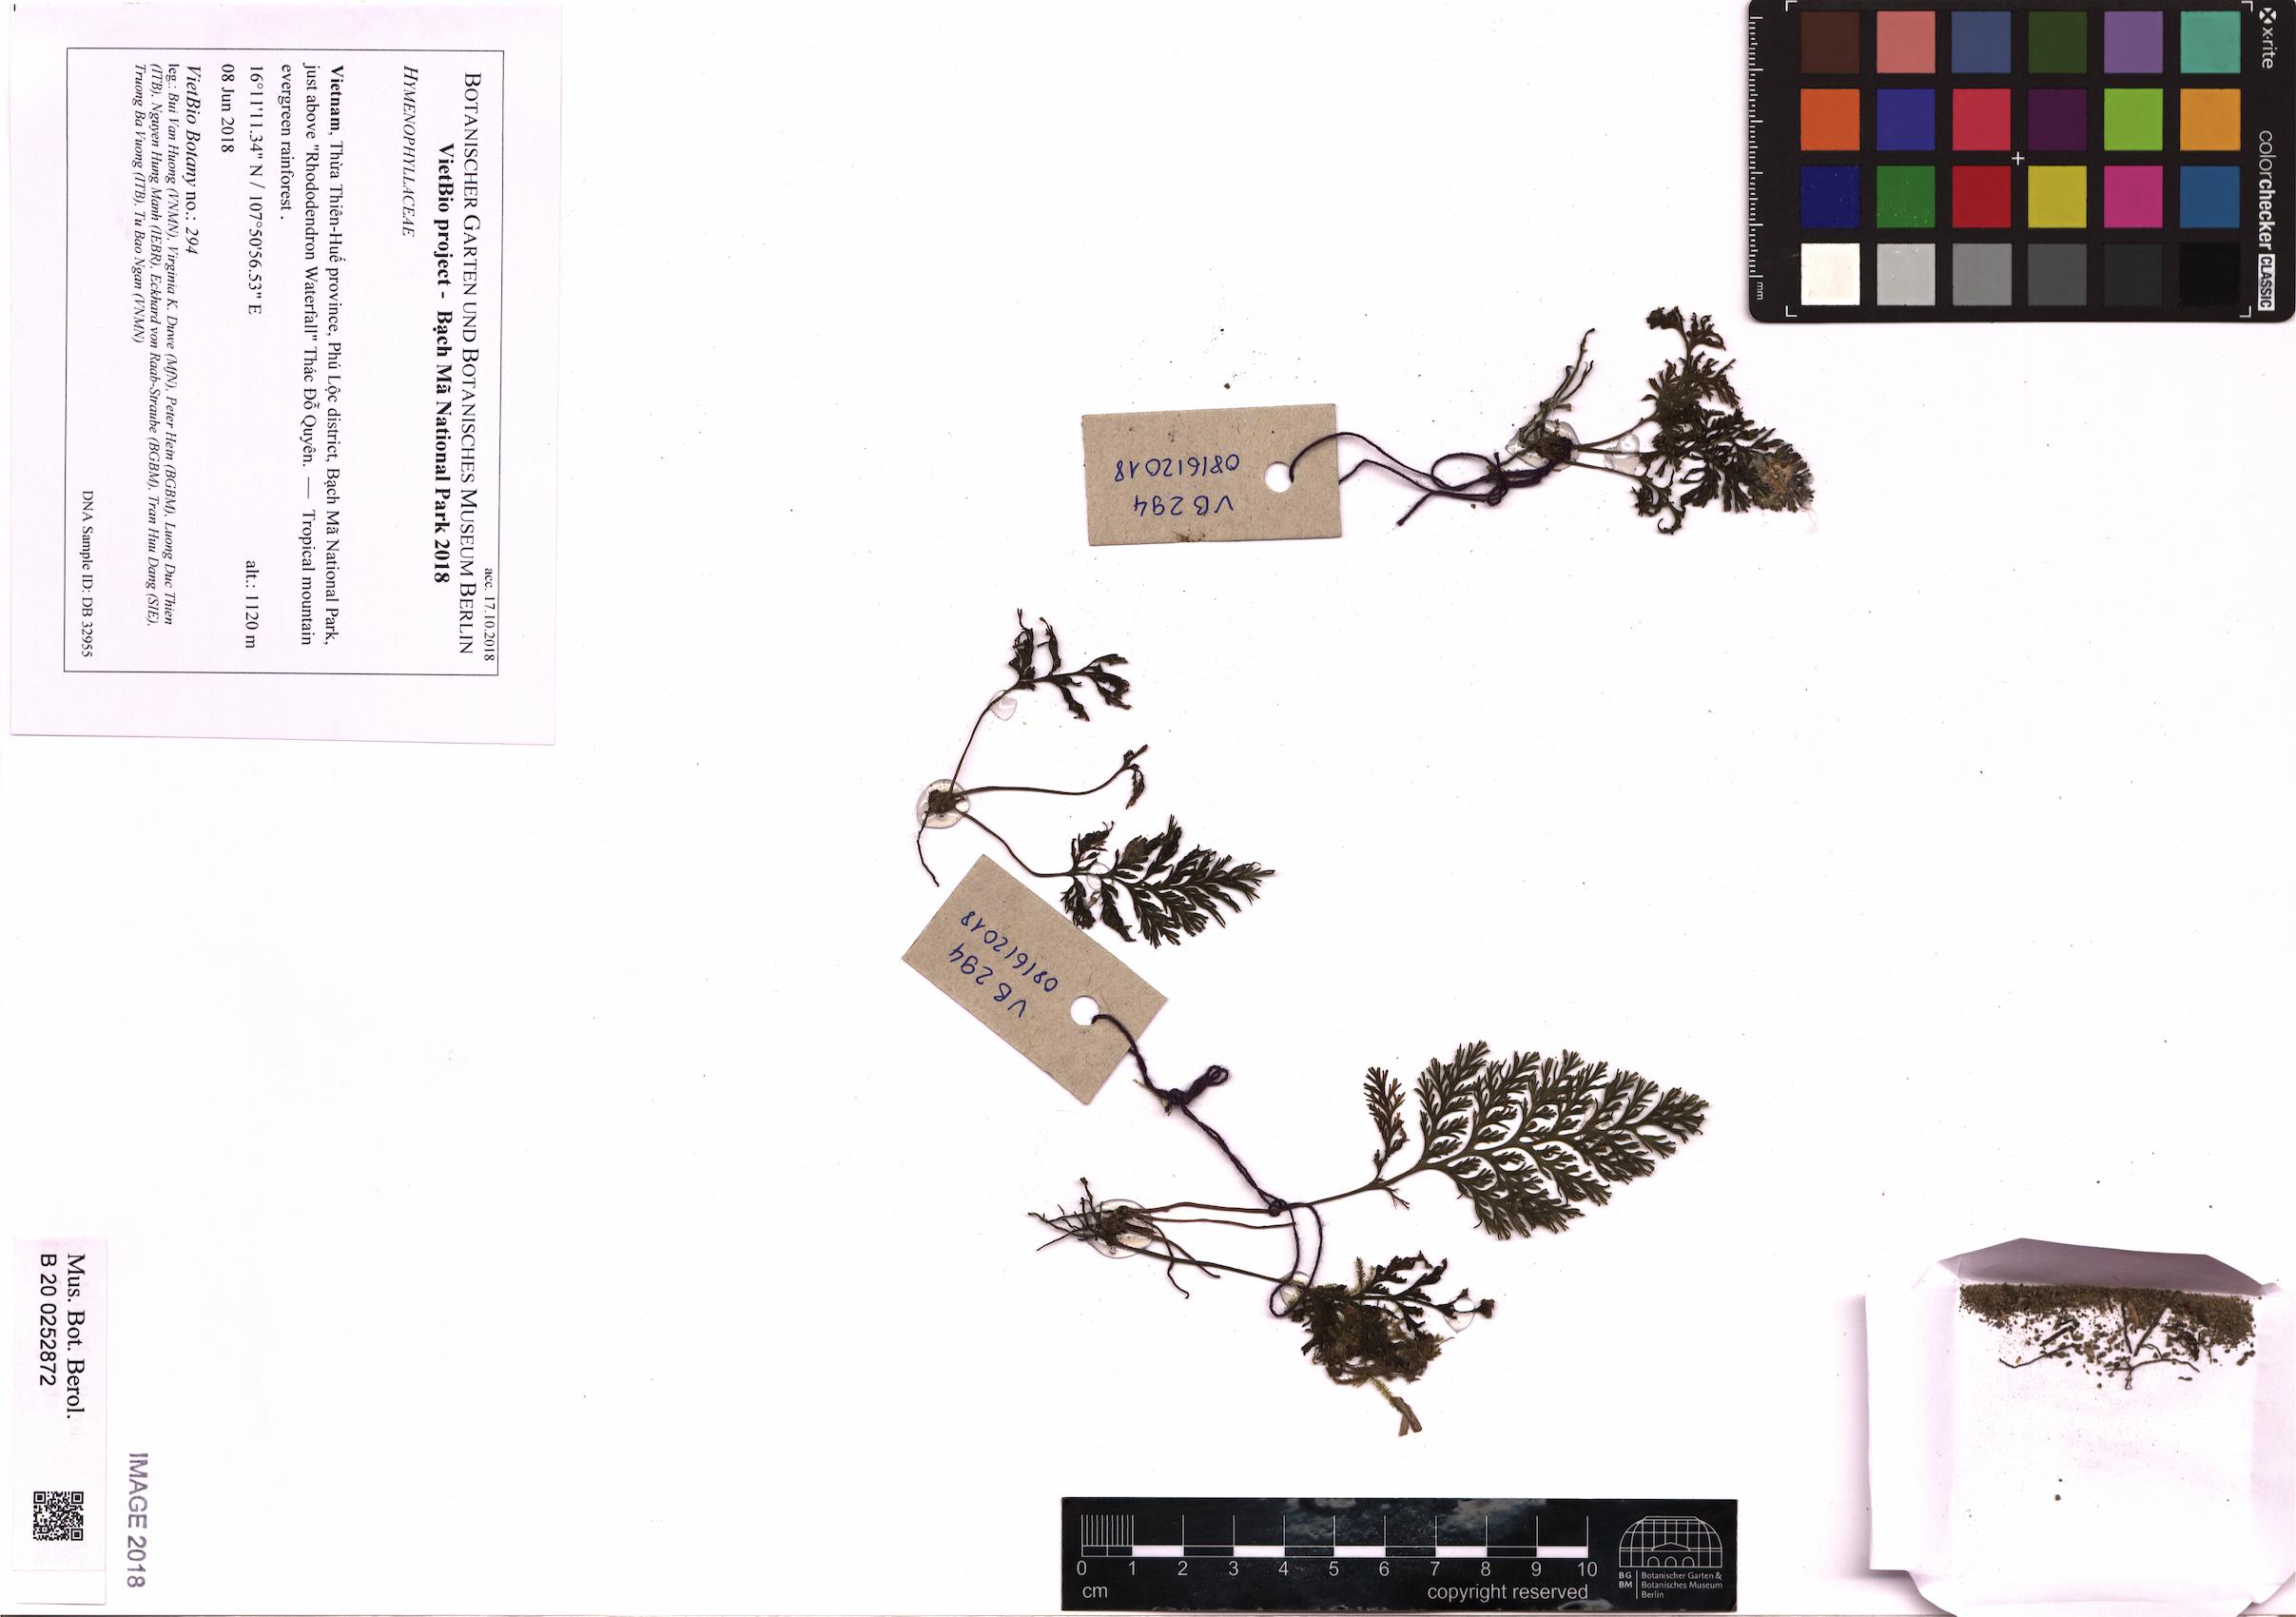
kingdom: Plantae
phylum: Tracheophyta
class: Polypodiopsida
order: Hymenophyllales
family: Hymenophyllaceae
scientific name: Hymenophyllaceae
